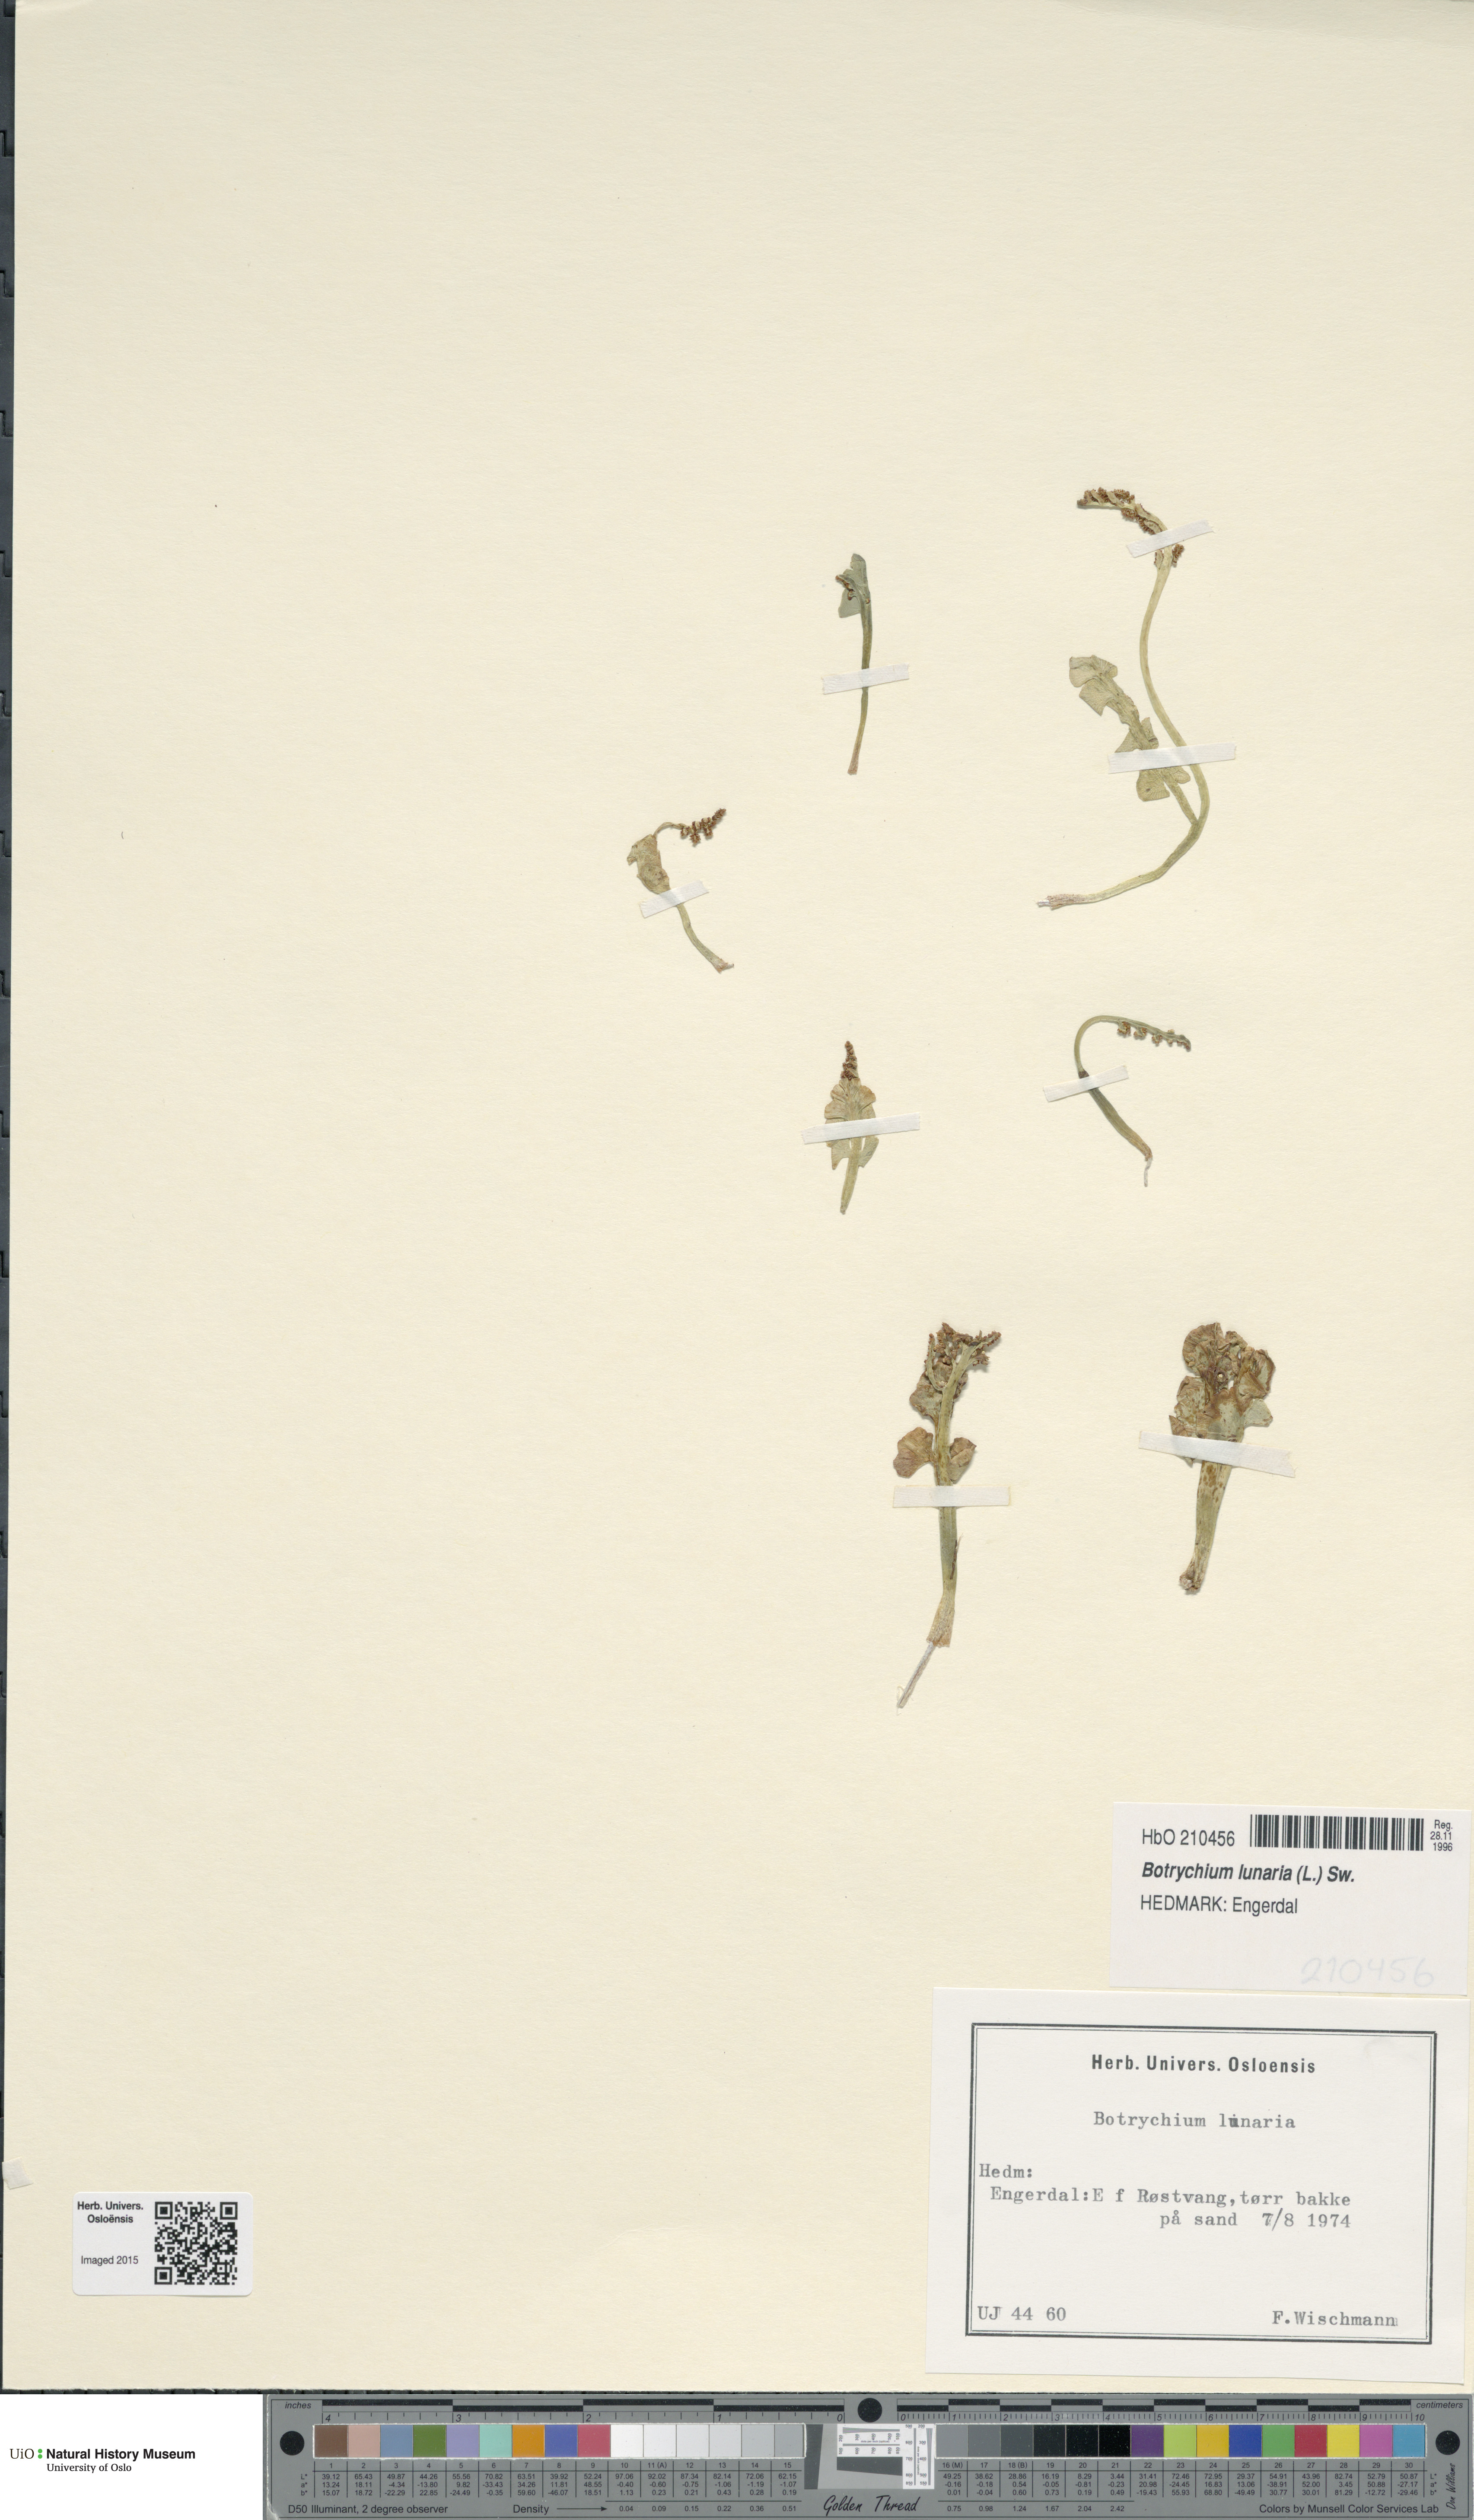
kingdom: Plantae
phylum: Tracheophyta
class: Polypodiopsida
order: Ophioglossales
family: Ophioglossaceae
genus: Botrychium
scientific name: Botrychium lunaria
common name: Moonwort
